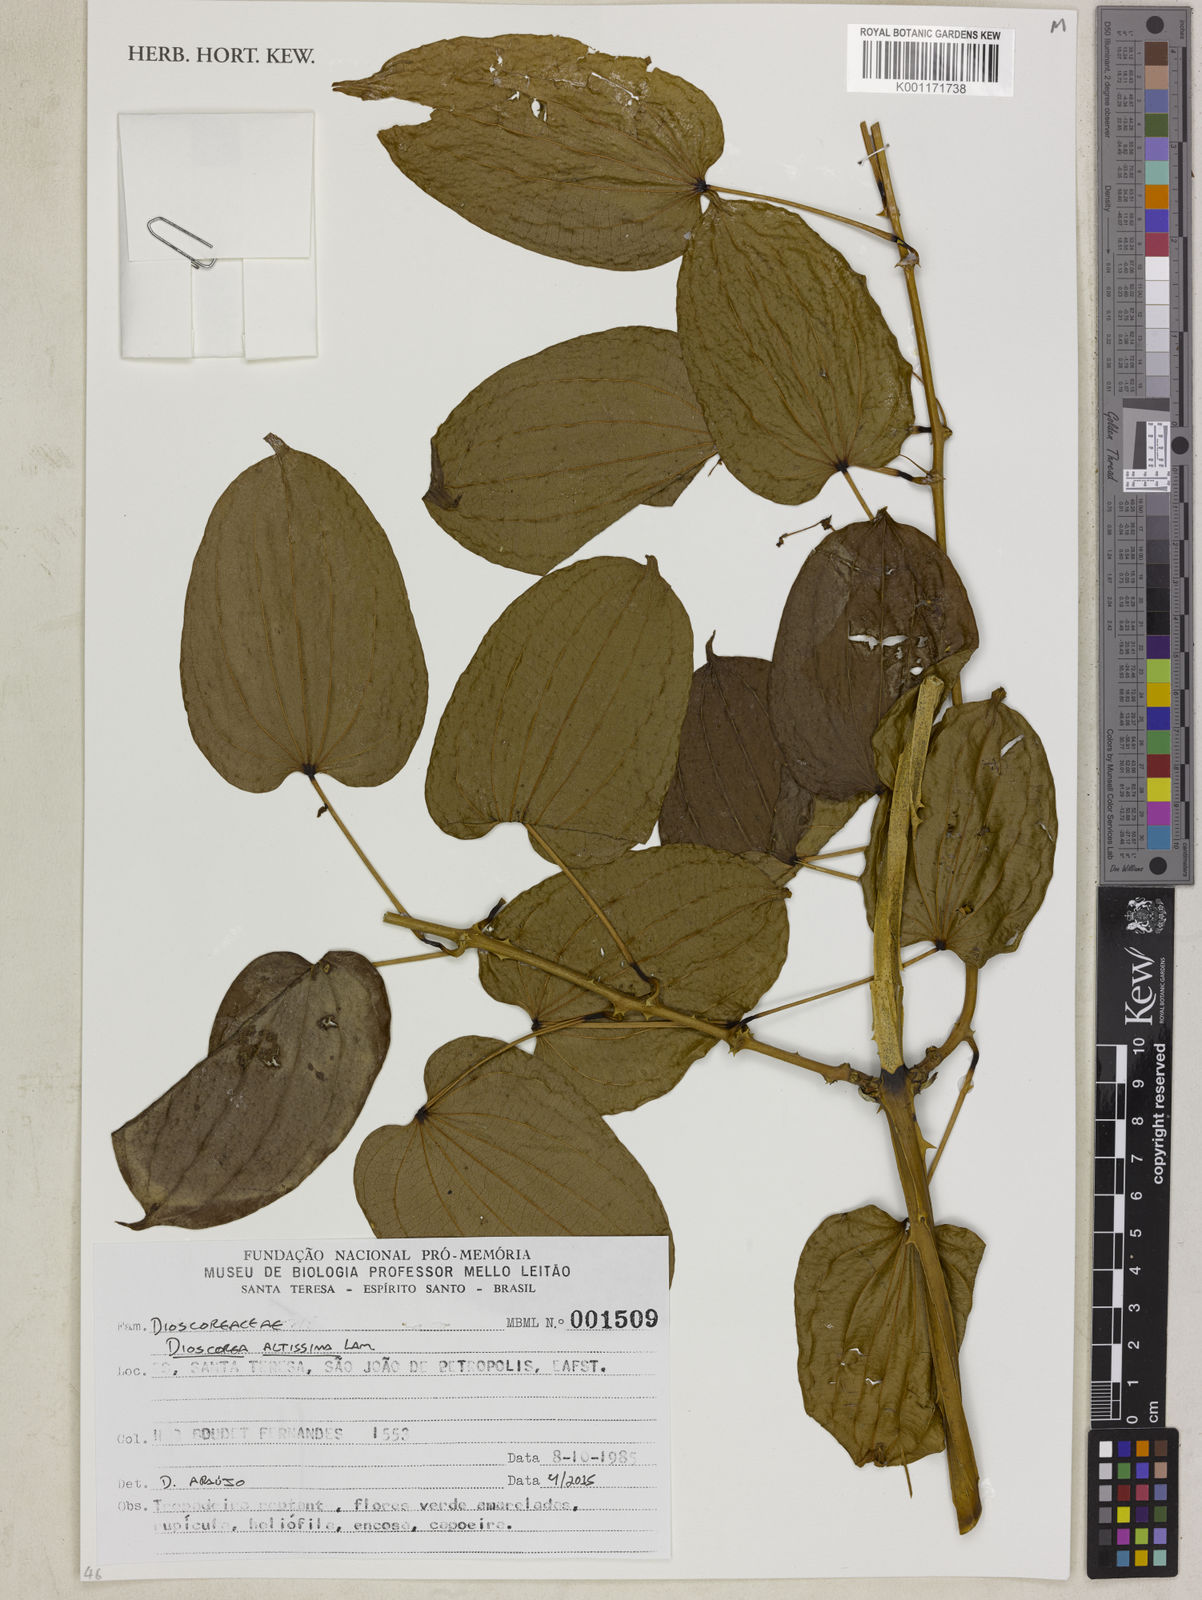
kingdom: Plantae
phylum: Tracheophyta
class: Liliopsida
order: Dioscoreales
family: Dioscoreaceae
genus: Dioscorea
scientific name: Dioscorea chondrocarpa
